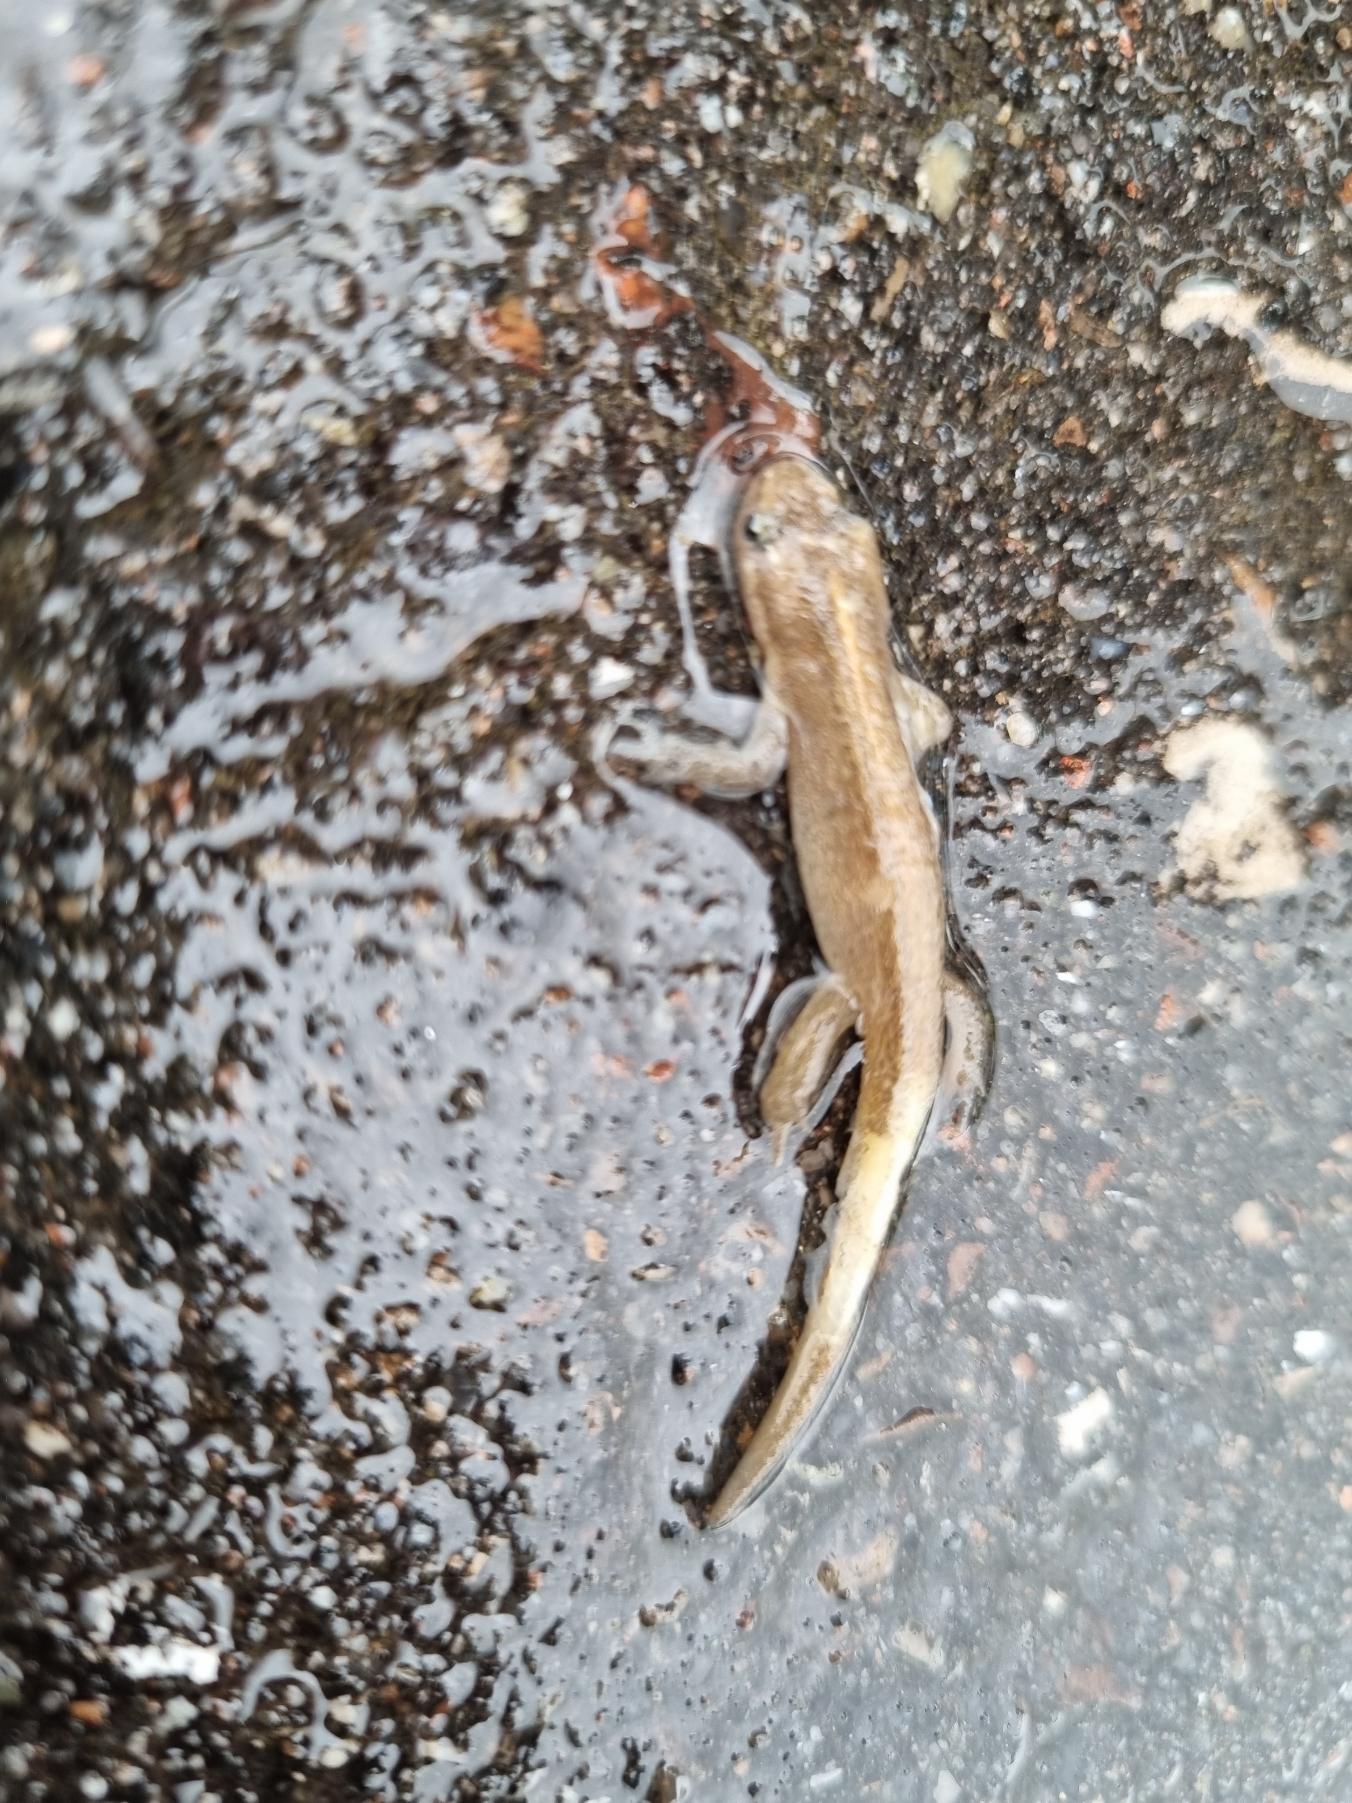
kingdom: Animalia
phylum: Chordata
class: Amphibia
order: Caudata
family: Salamandridae
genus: Lissotriton
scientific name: Lissotriton vulgaris
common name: Lille vandsalamander
